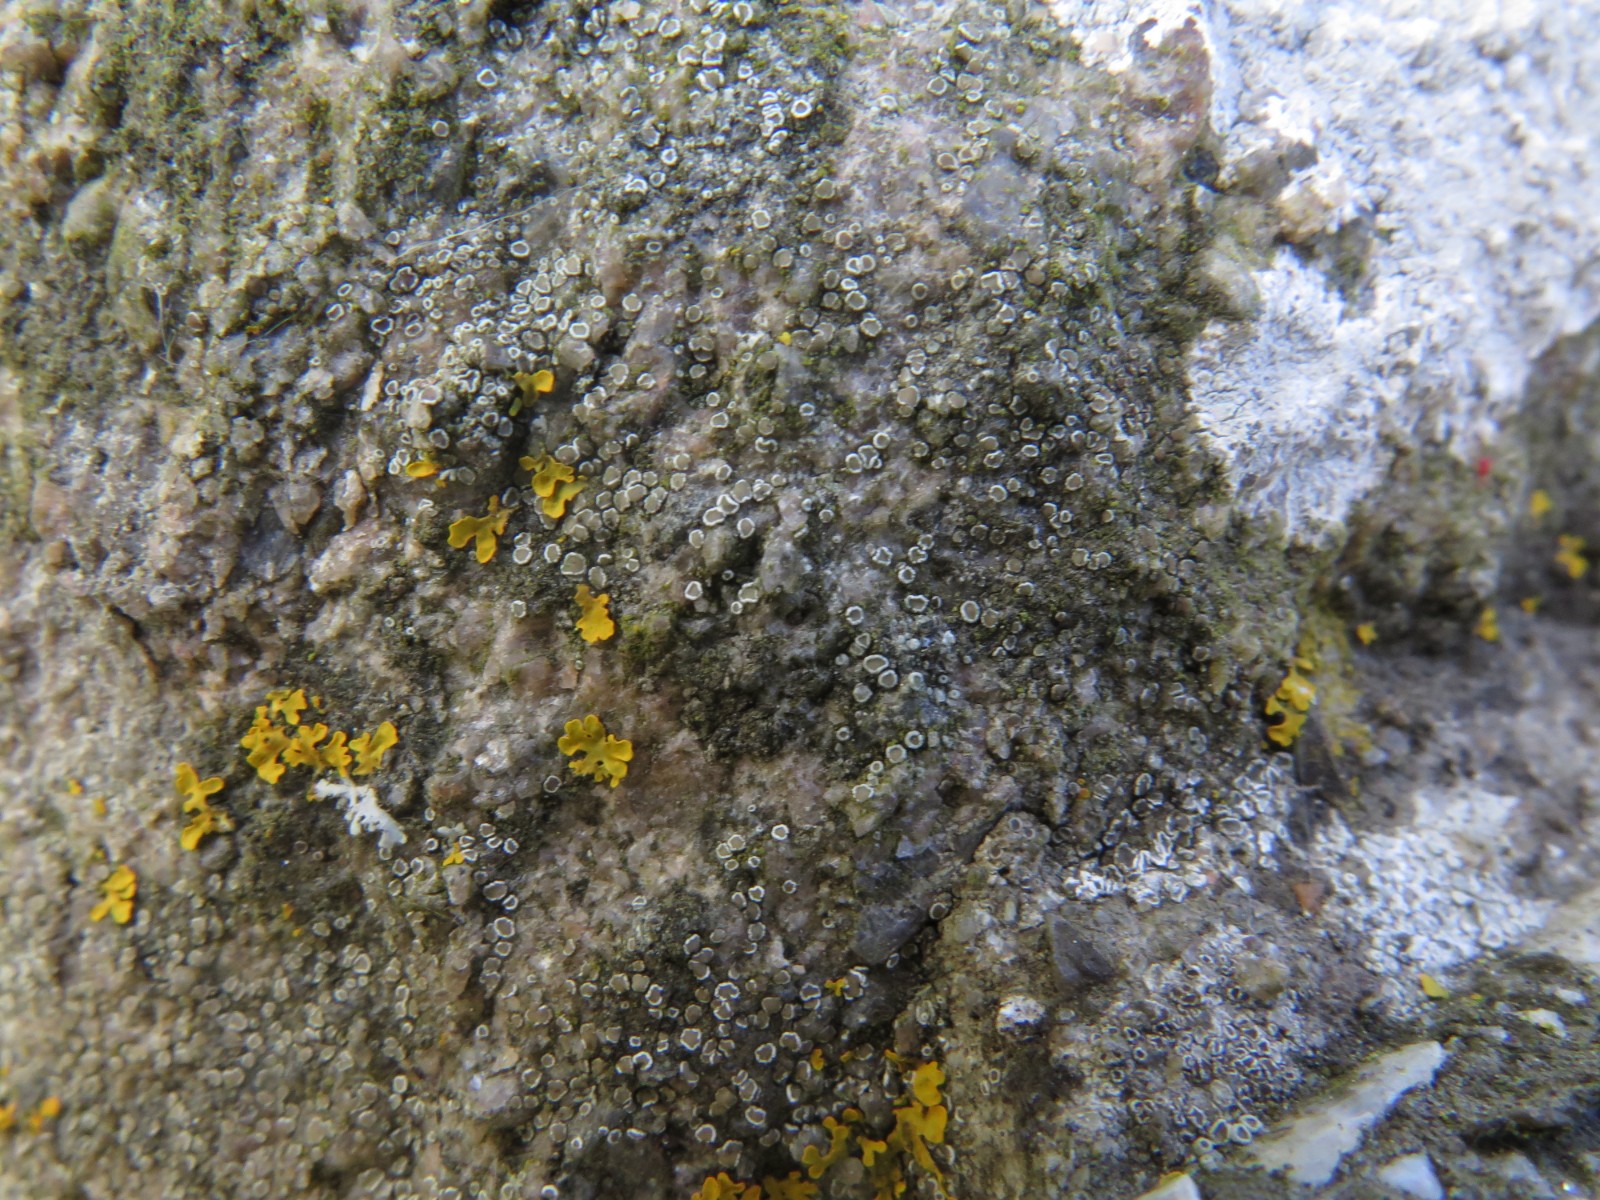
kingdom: Fungi
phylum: Ascomycota
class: Lecanoromycetes
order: Lecanorales
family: Lecanoraceae
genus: Polyozosia
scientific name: Polyozosia dispersa
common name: spredt kantskivelav
